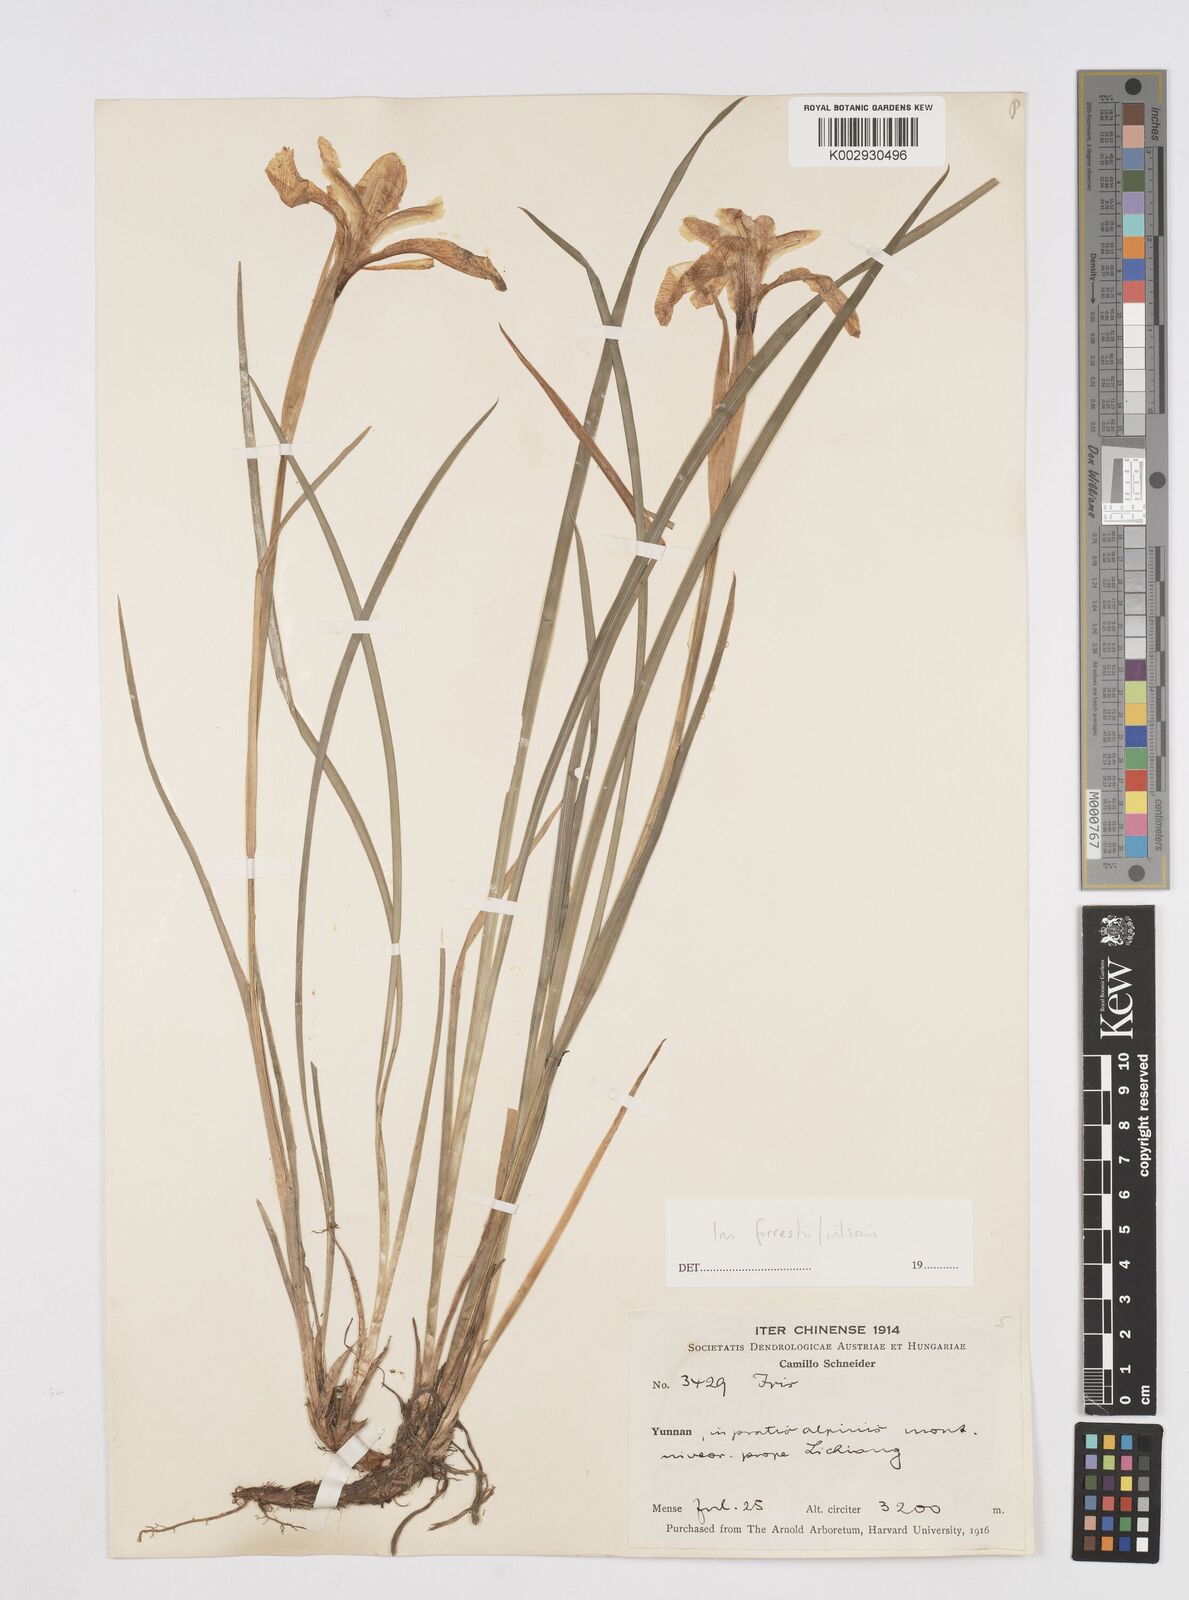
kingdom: Plantae
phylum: Tracheophyta
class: Liliopsida
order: Asparagales
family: Iridaceae
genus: Iris
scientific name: Iris wilsonii
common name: Yellow-flower iris
